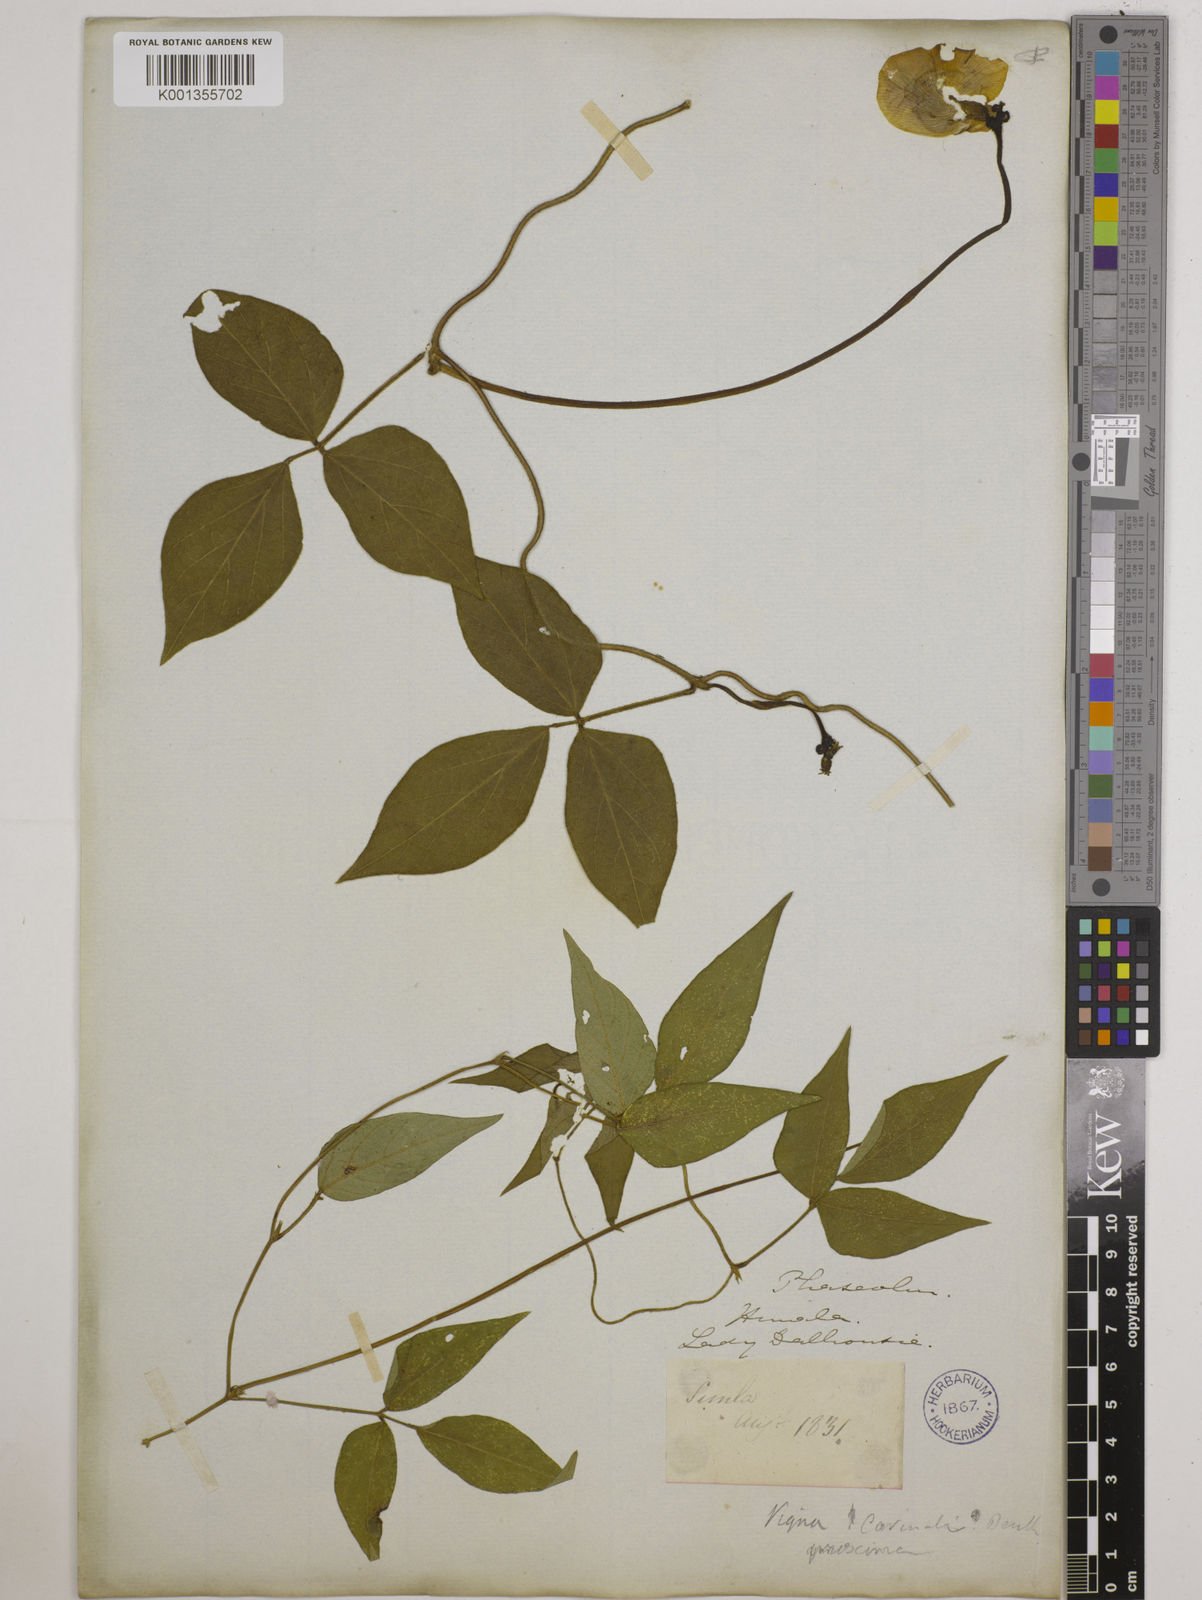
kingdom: Plantae
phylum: Tracheophyta
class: Magnoliopsida
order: Fabales
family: Fabaceae
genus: Vigna
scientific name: Vigna vexillata
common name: Zombi pea
